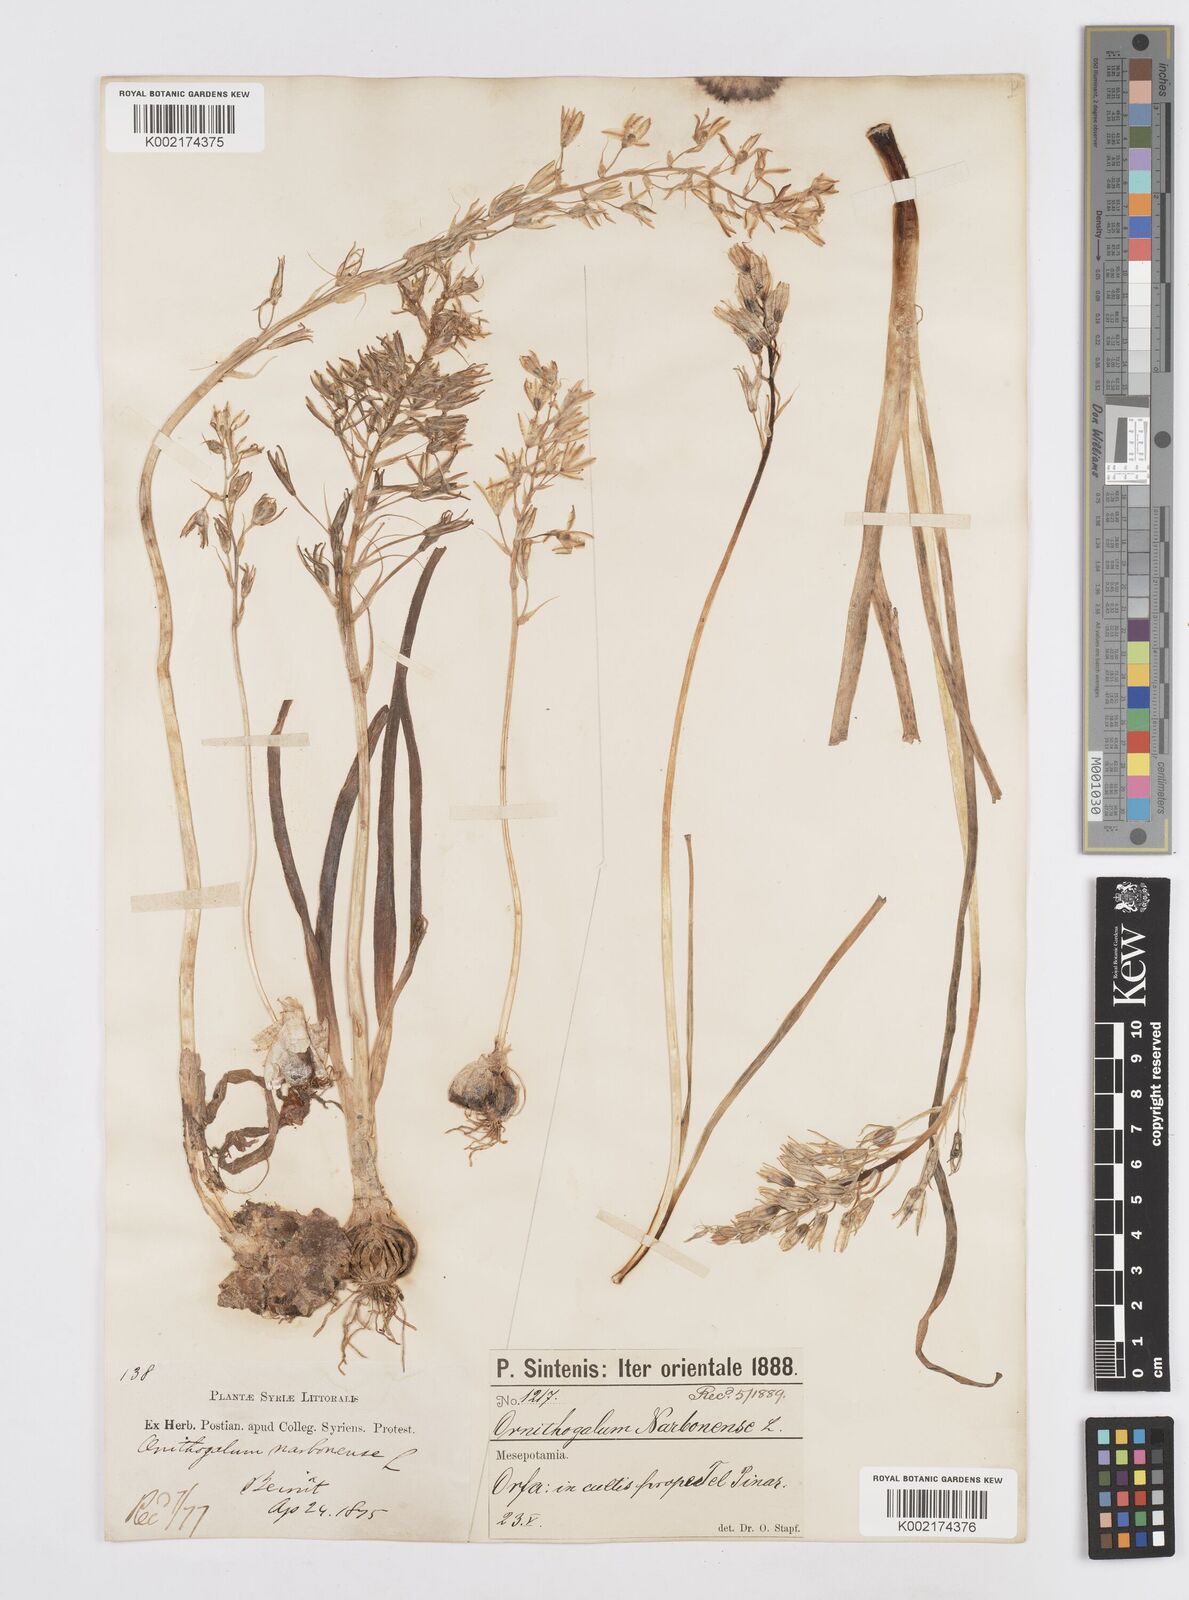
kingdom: Plantae
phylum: Tracheophyta
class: Liliopsida
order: Asparagales
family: Asparagaceae
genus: Ornithogalum
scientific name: Ornithogalum narbonense
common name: Bath-asparagus
